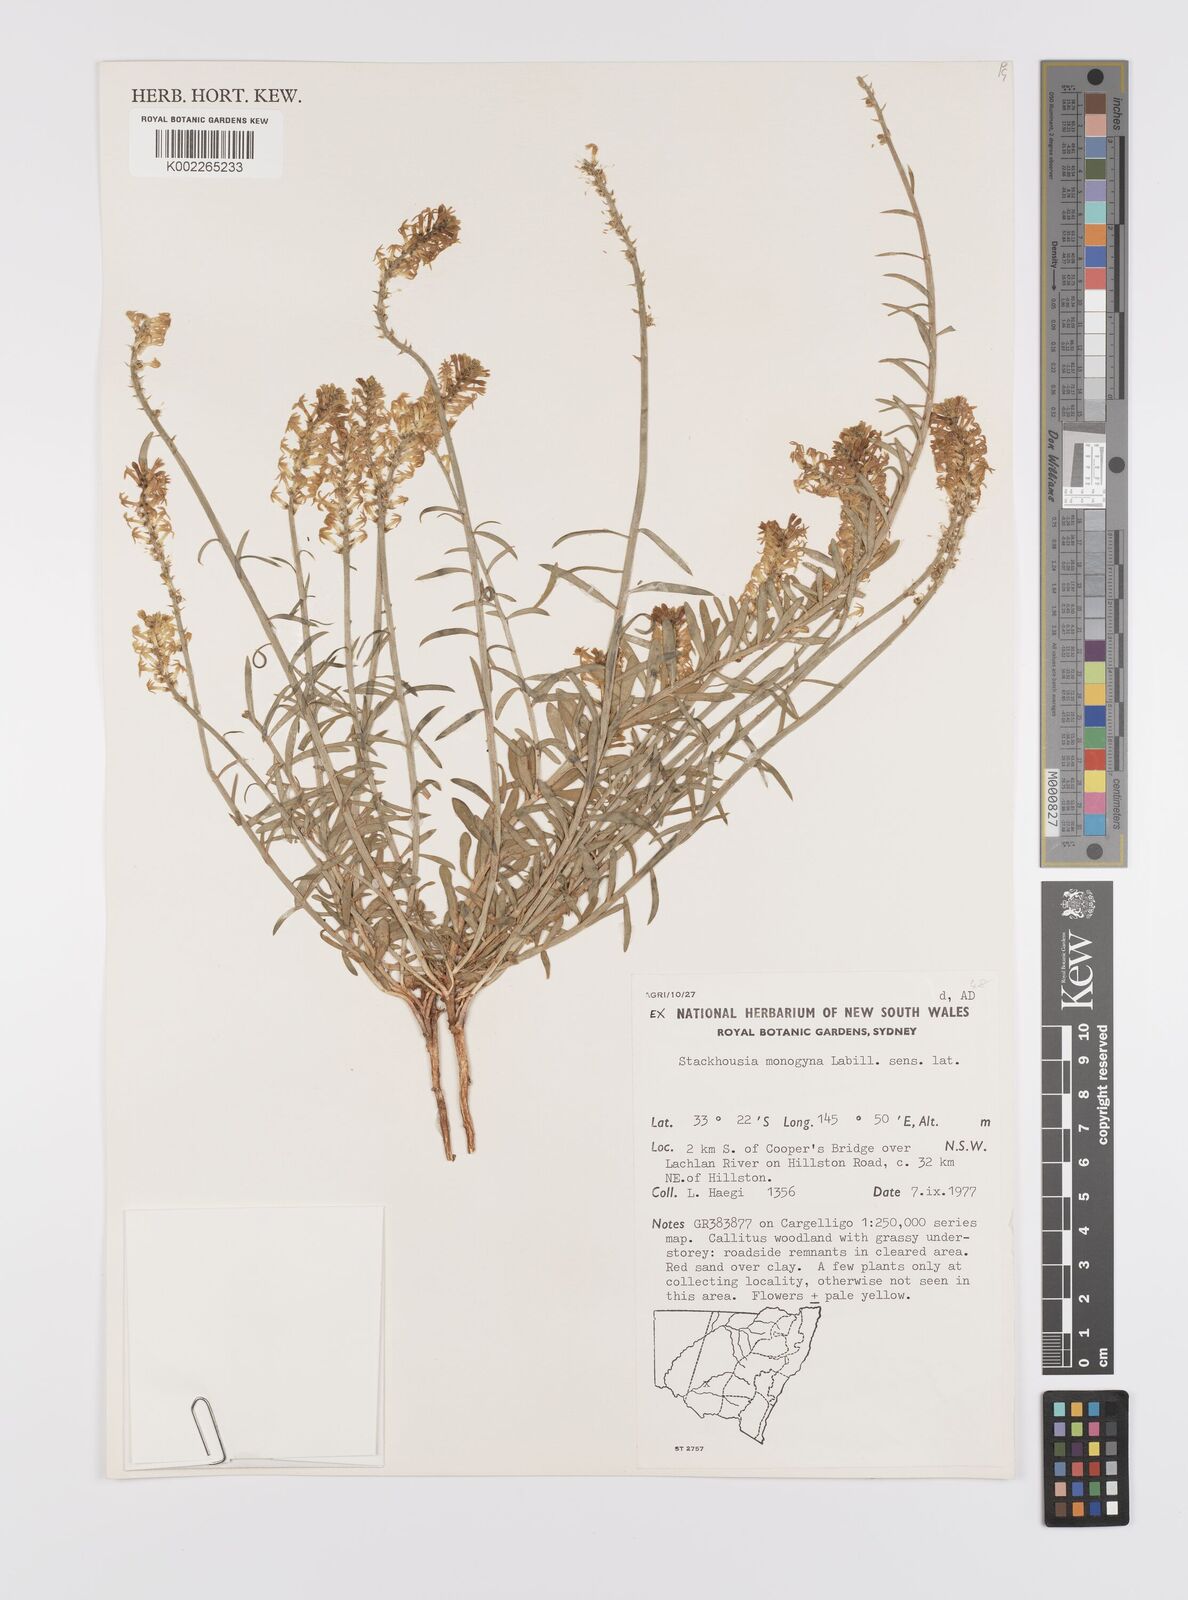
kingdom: Plantae
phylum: Tracheophyta
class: Magnoliopsida
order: Celastrales
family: Celastraceae
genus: Stackhousia
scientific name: Stackhousia monogyna
